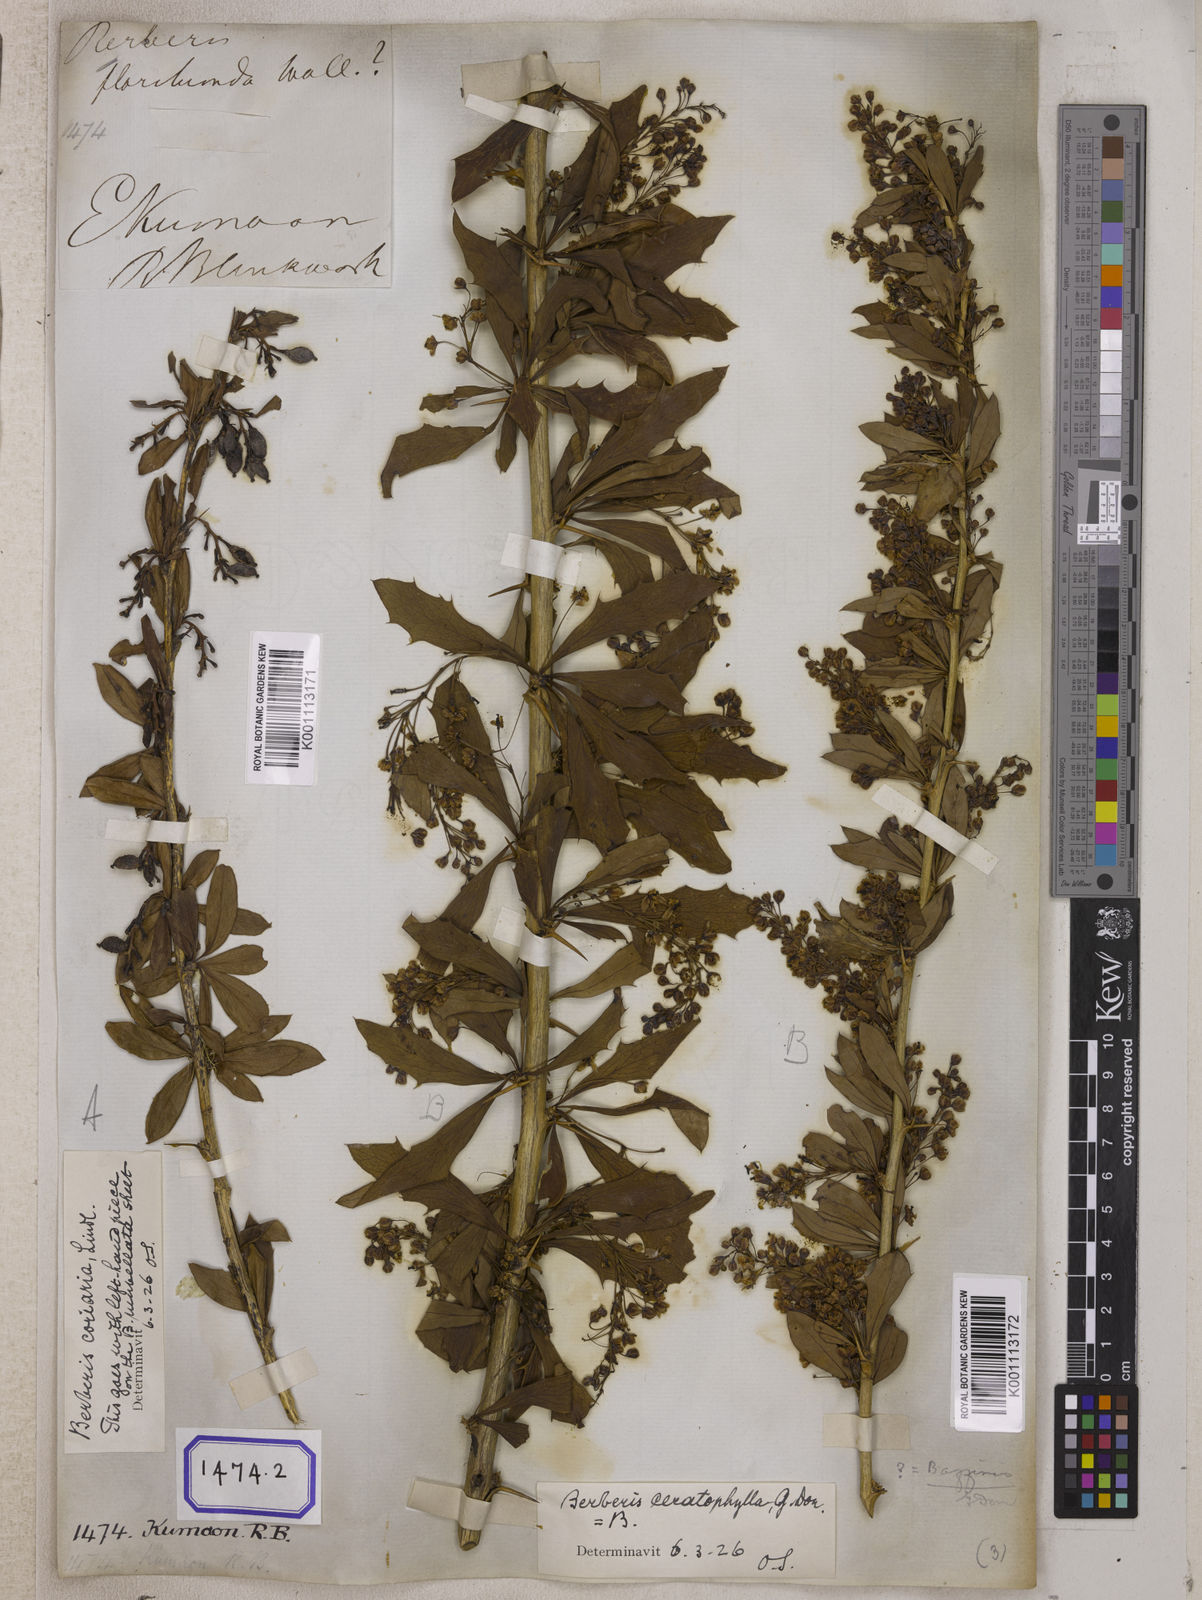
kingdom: Plantae
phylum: Tracheophyta
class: Magnoliopsida
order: Ranunculales
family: Berberidaceae
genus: Berberis
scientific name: Berberis aristata
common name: Indian barberry
